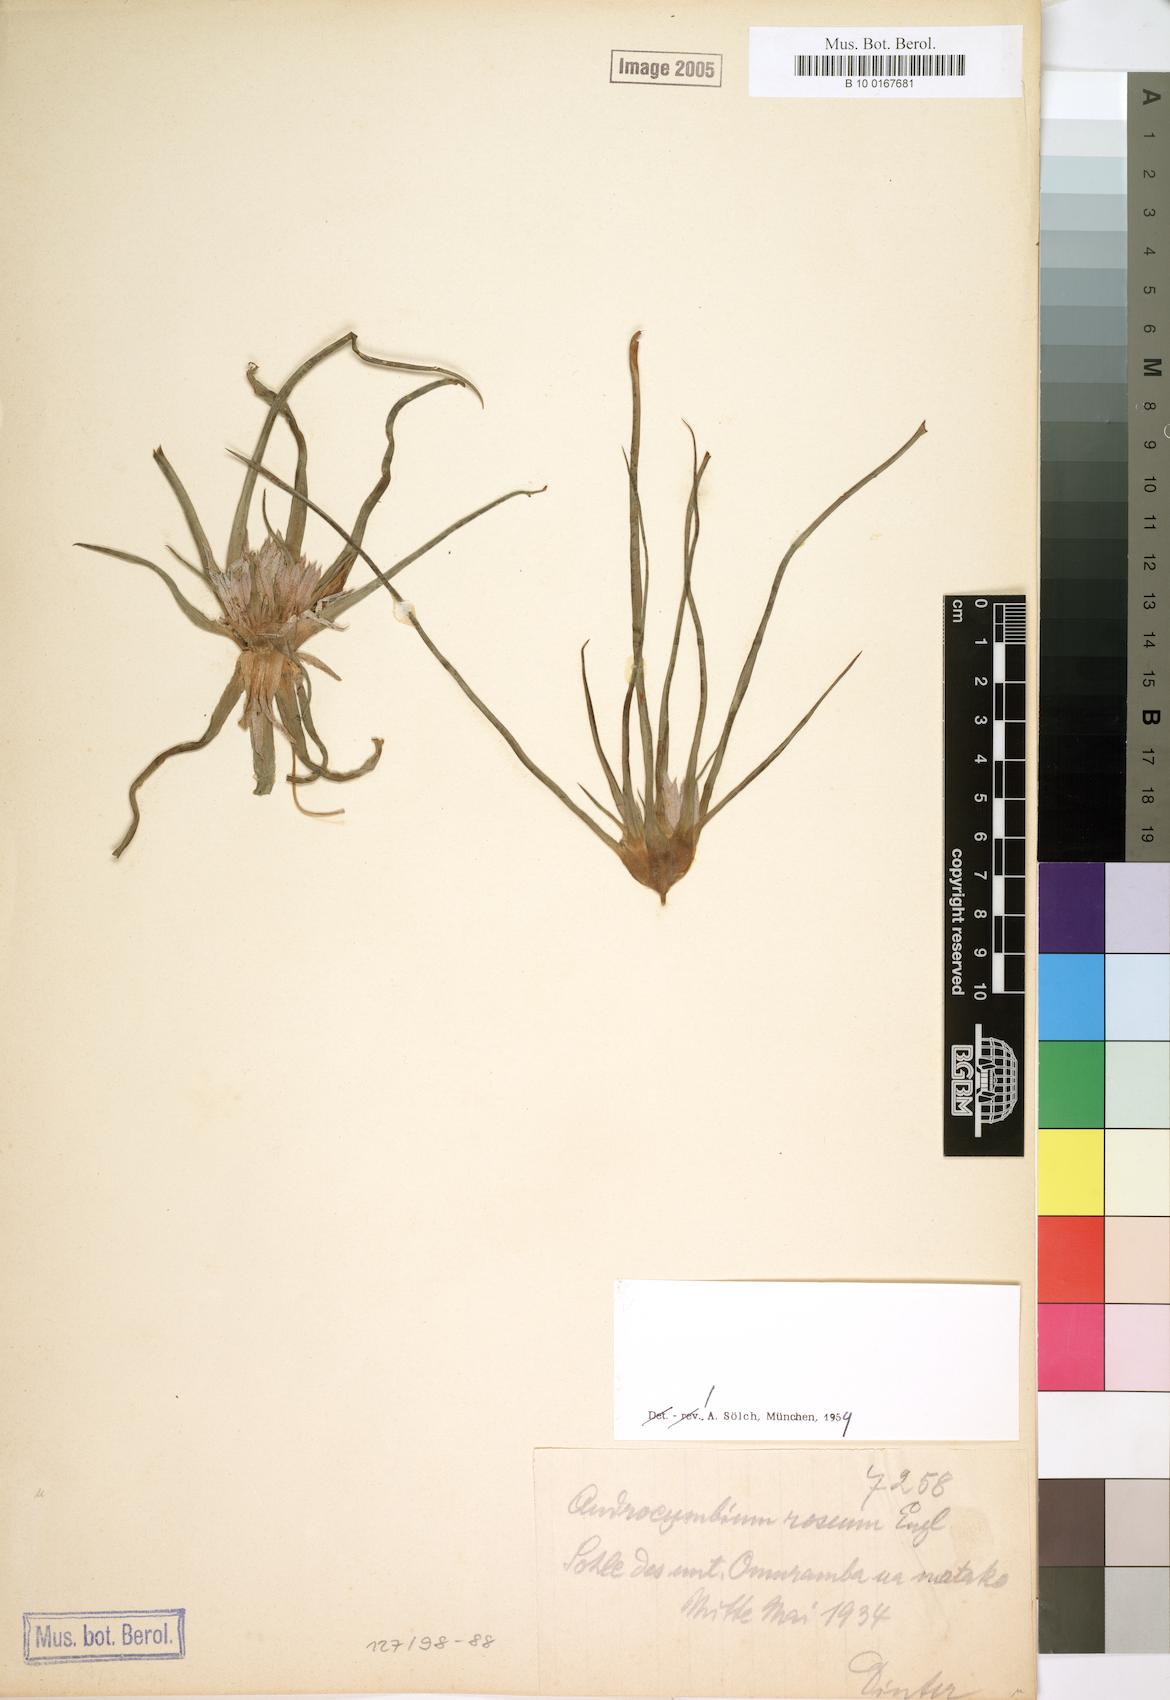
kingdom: Plantae
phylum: Tracheophyta
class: Liliopsida
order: Liliales
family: Colchicaceae
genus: Colchicum
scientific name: Colchicum roseum
